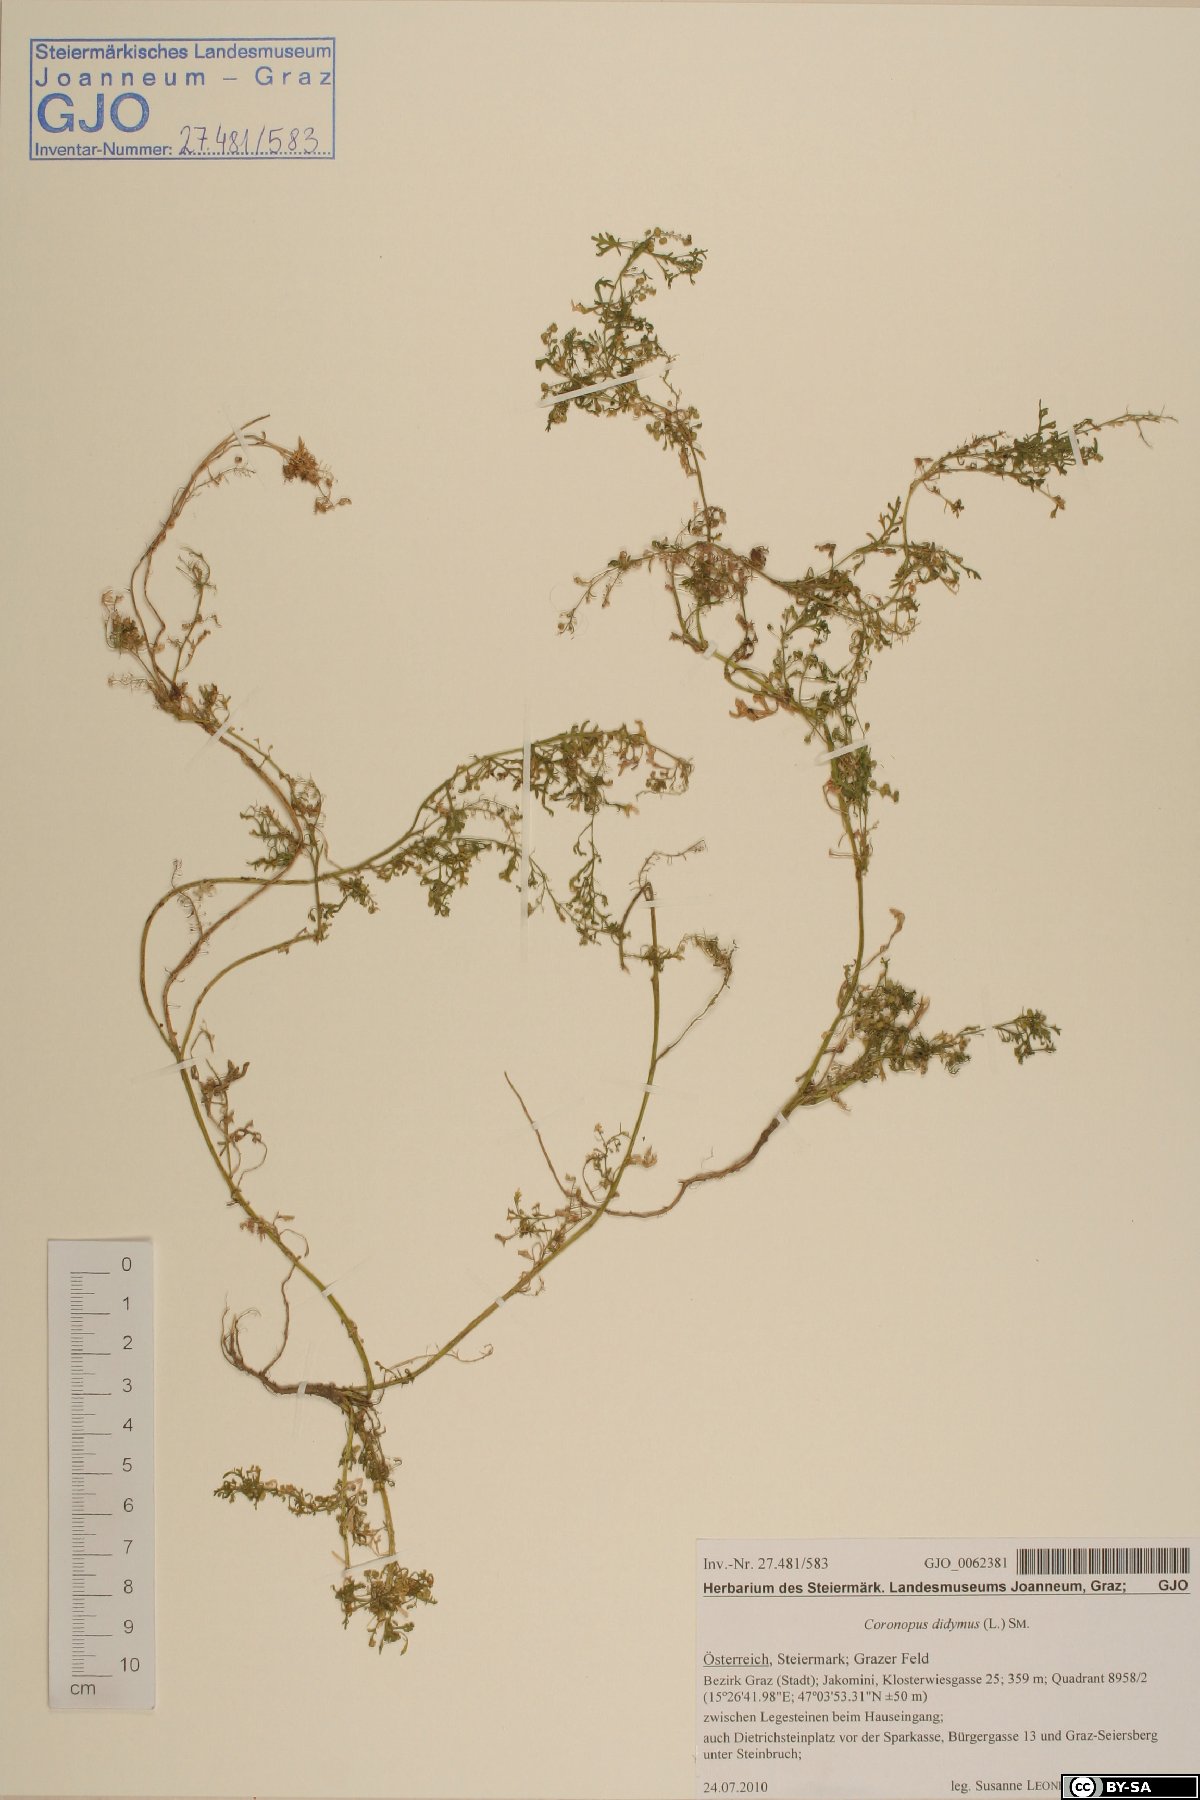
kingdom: Plantae
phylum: Tracheophyta
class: Magnoliopsida
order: Brassicales
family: Brassicaceae
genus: Lepidium
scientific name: Lepidium didymum
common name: Lesser swinecress
